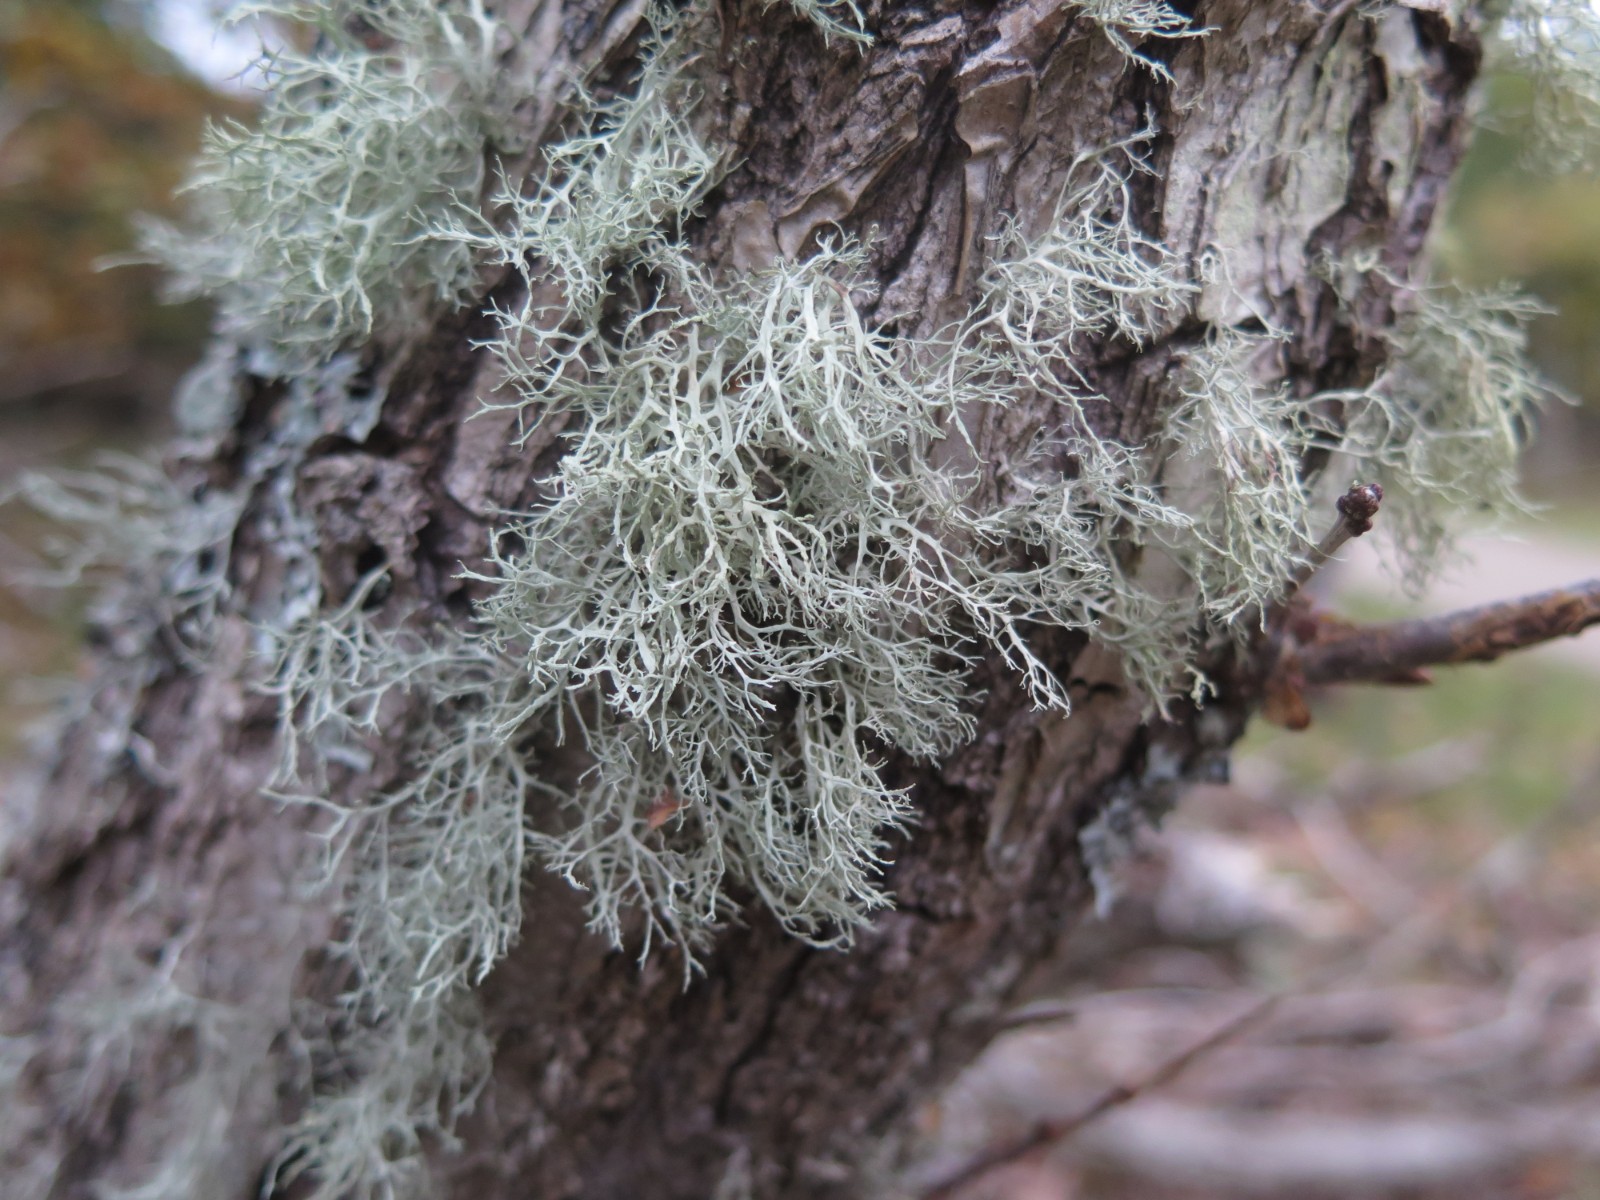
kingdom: Fungi
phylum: Ascomycota
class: Lecanoromycetes
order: Lecanorales
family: Ramalinaceae
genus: Ramalina
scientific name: Ramalina farinacea
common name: melet grenlav
